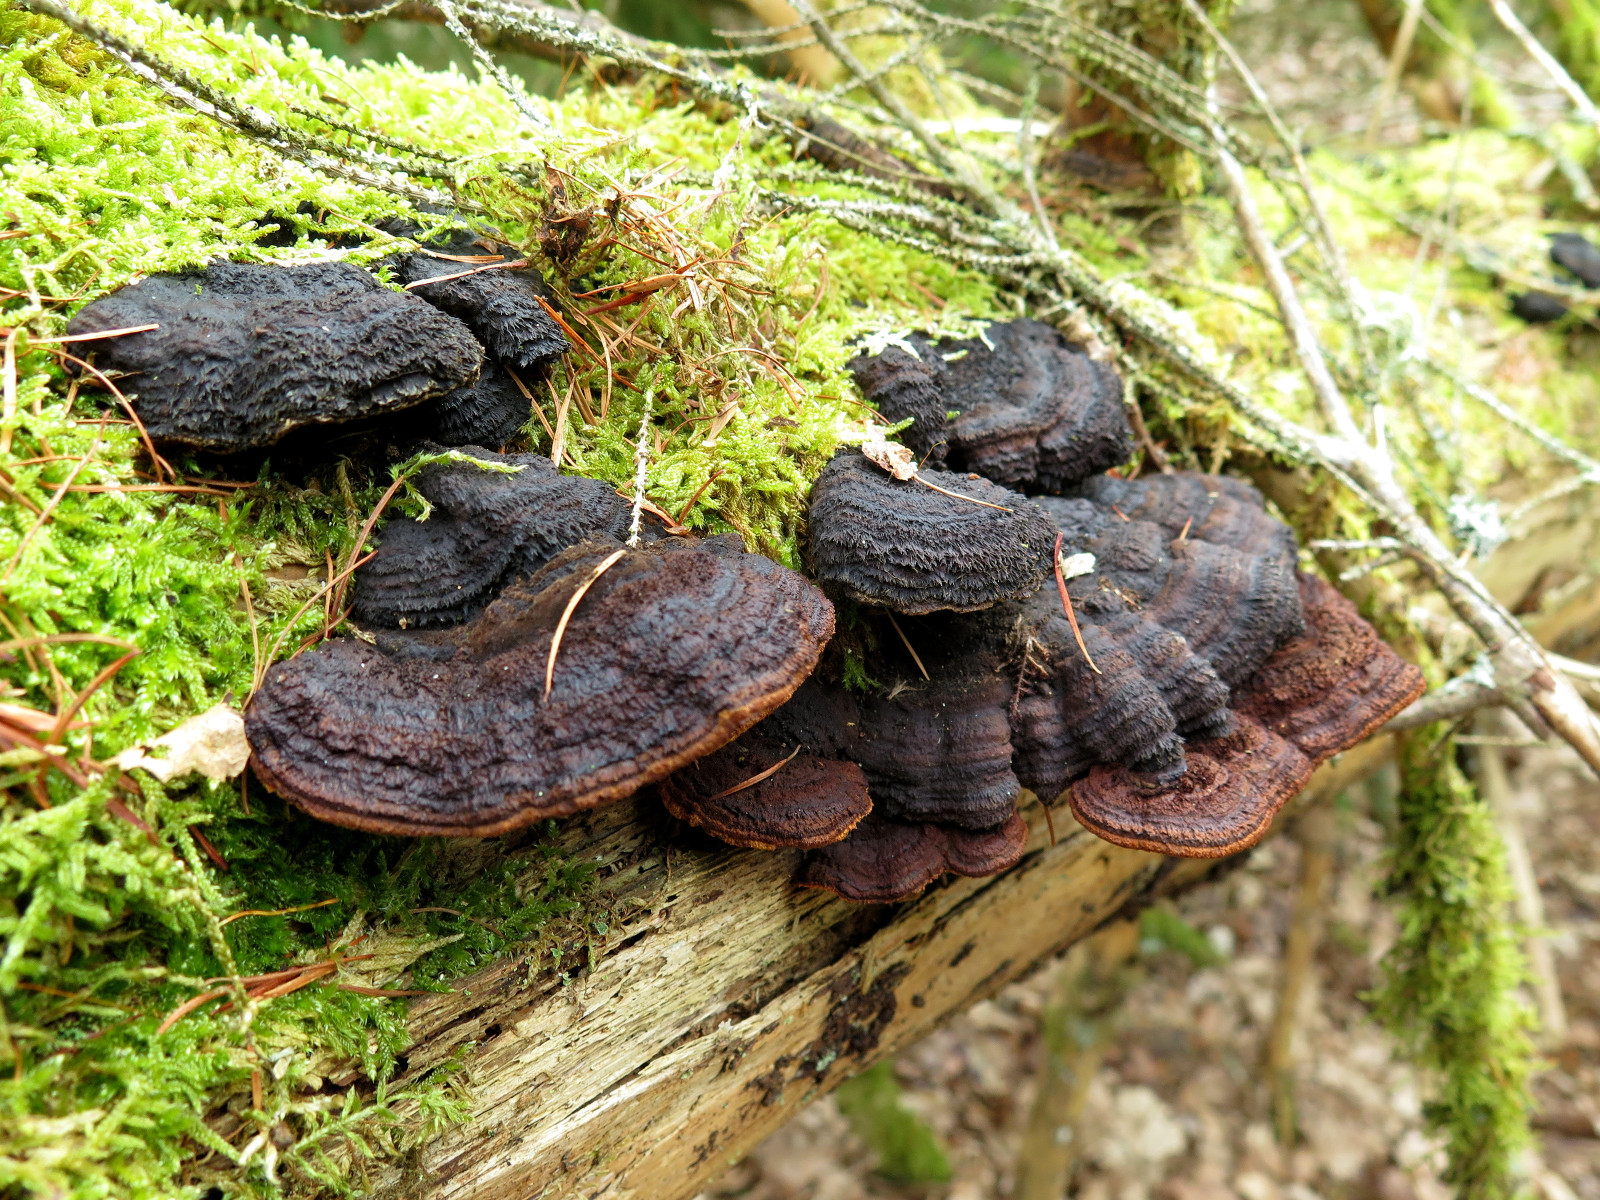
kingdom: Fungi
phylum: Basidiomycota
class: Agaricomycetes
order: Gloeophyllales
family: Gloeophyllaceae
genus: Gloeophyllum
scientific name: Gloeophyllum sepiarium
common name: fyrre-korkhat
